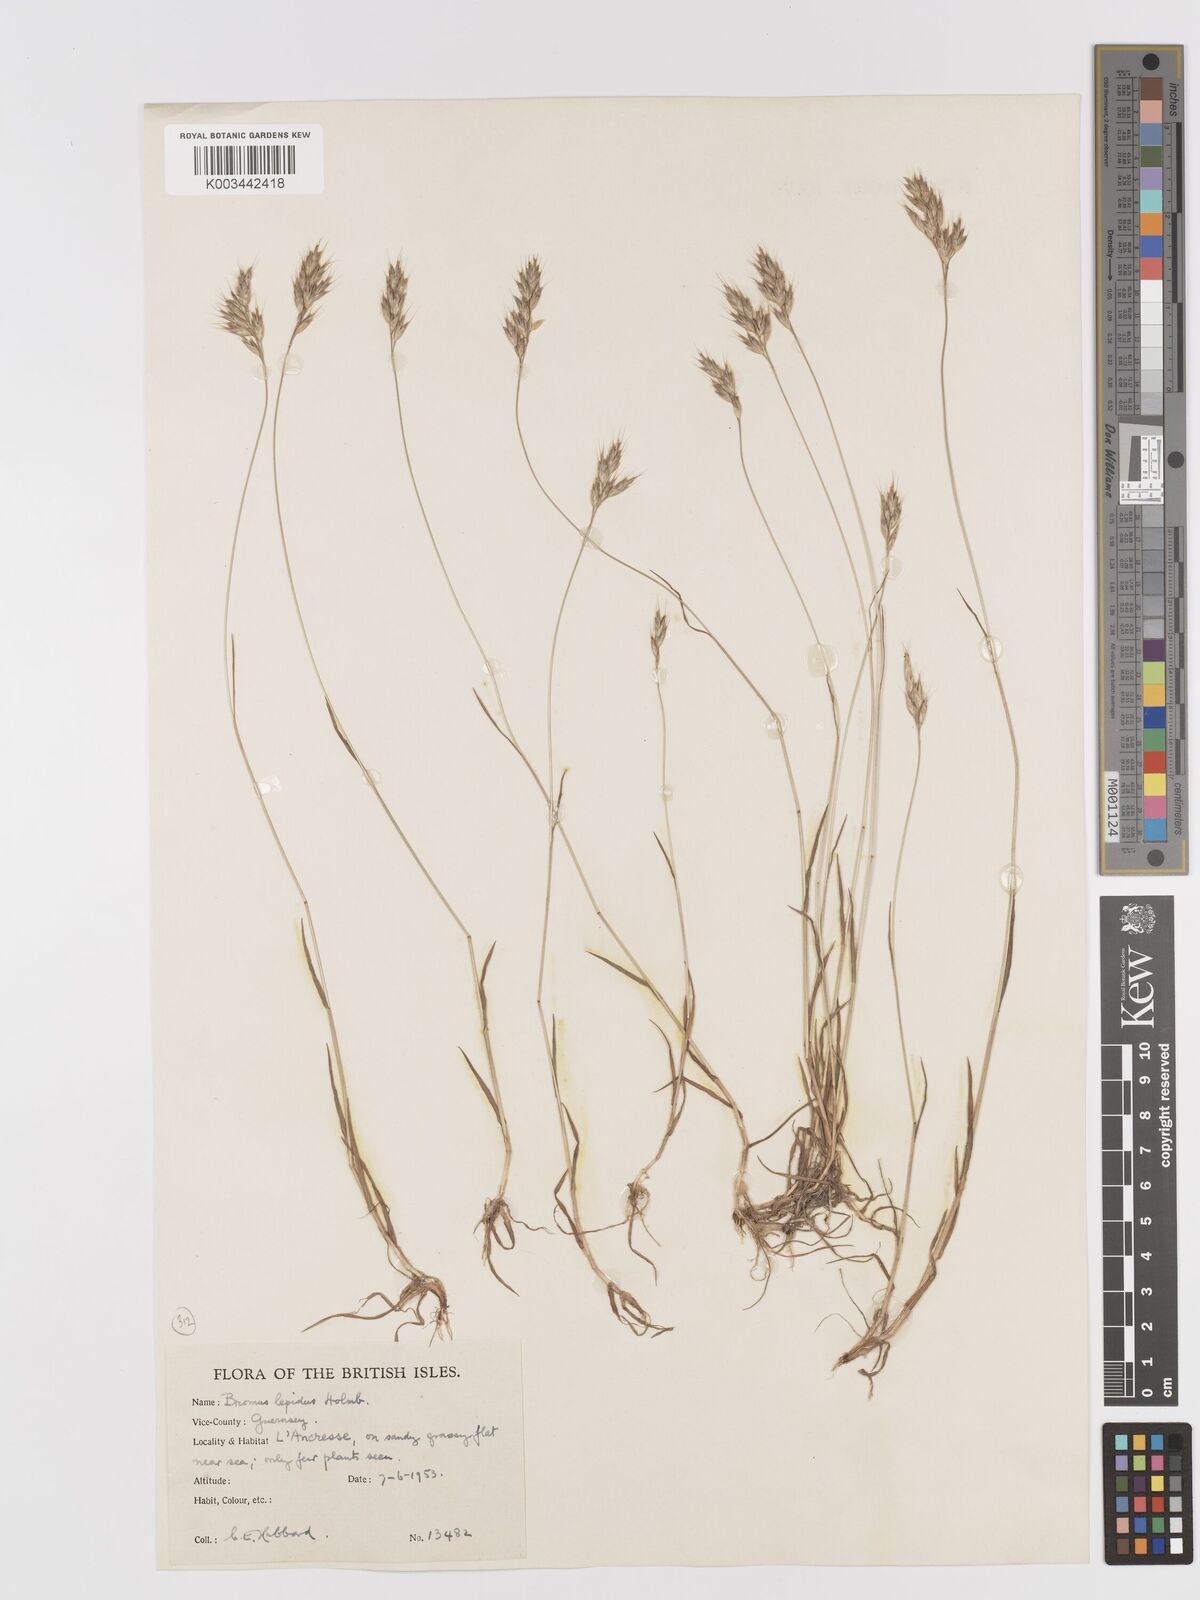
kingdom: Plantae
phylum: Tracheophyta
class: Liliopsida
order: Poales
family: Poaceae
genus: Bromus
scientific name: Bromus lepidus
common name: Slender soft-brome
